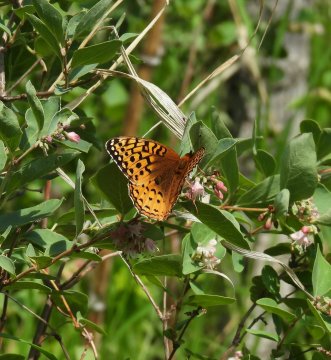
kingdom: Animalia
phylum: Arthropoda
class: Insecta
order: Lepidoptera
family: Nymphalidae
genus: Speyeria
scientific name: Speyeria cybele
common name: Great Spangled Fritillary
